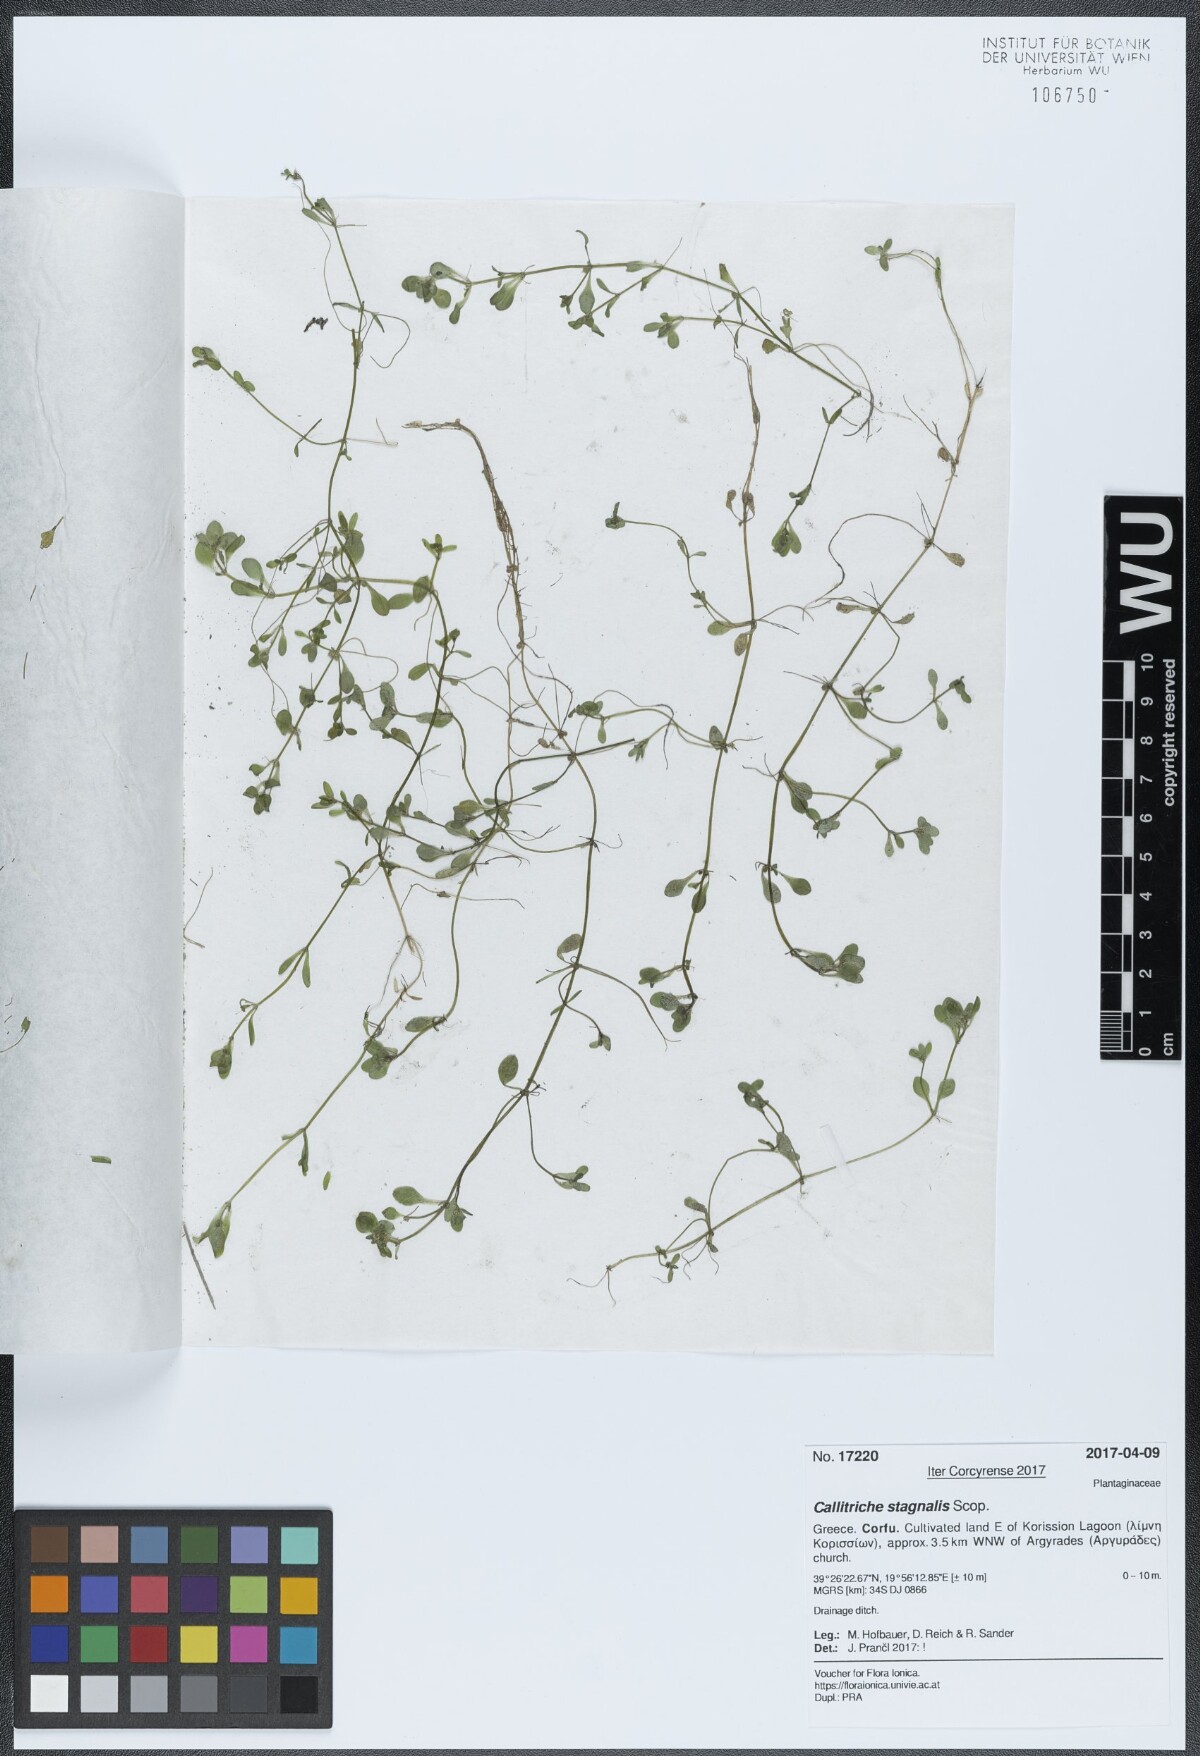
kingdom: Plantae
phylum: Tracheophyta
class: Magnoliopsida
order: Lamiales
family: Plantaginaceae
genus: Callitriche
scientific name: Callitriche stagnalis
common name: Common water-starwort
